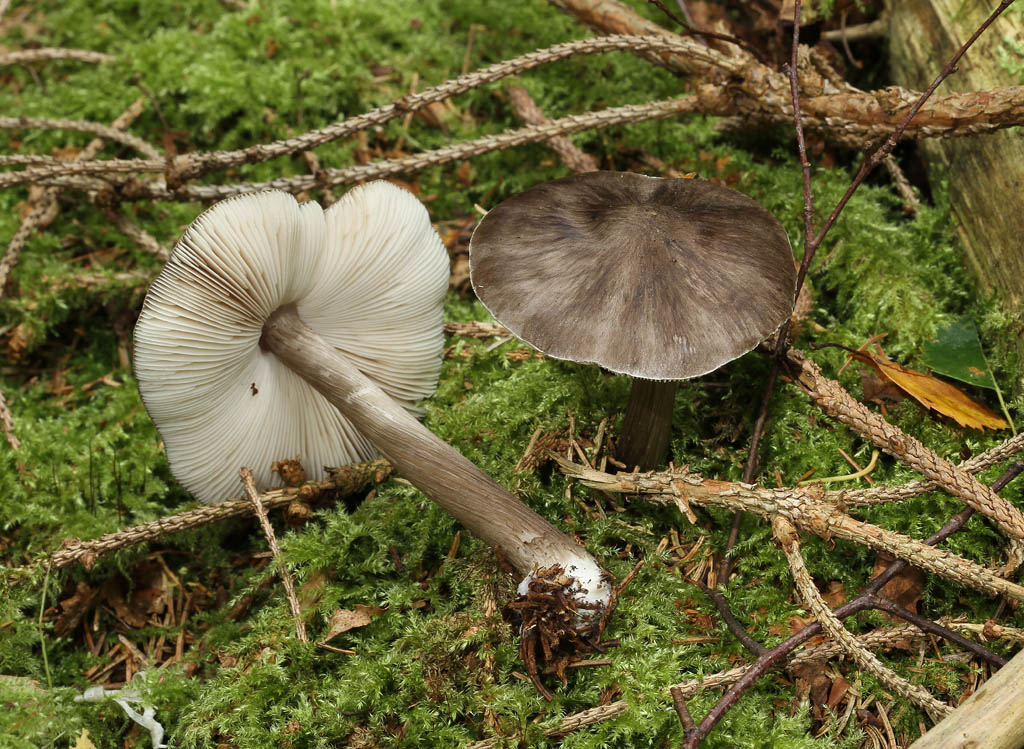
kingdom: Fungi
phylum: Basidiomycota
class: Agaricomycetes
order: Agaricales
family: Pluteaceae
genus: Pluteus
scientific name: Pluteus pouzarianus
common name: plantage-skærmhat
